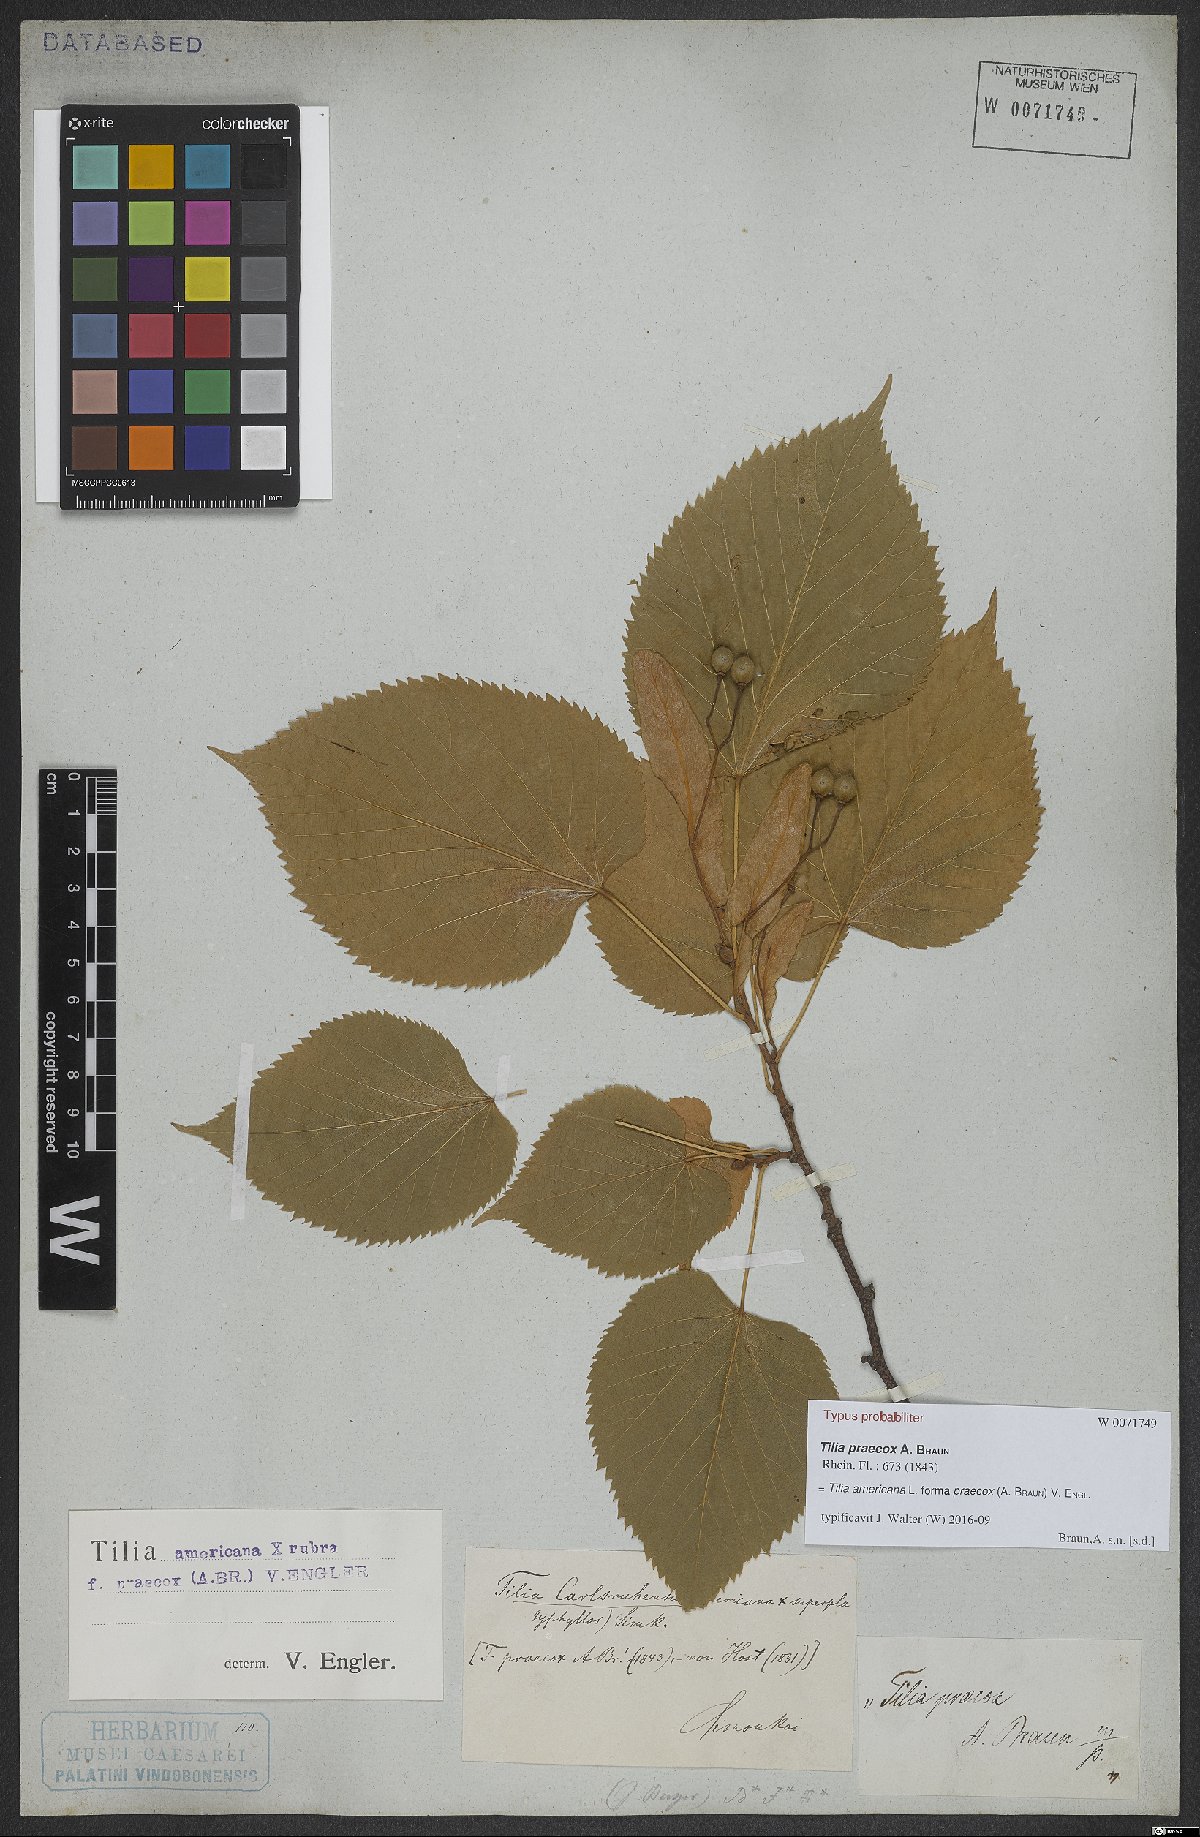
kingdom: Plantae
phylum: Tracheophyta
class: Magnoliopsida
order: Malvales
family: Malvaceae
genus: Tilia
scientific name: Tilia flaccida
